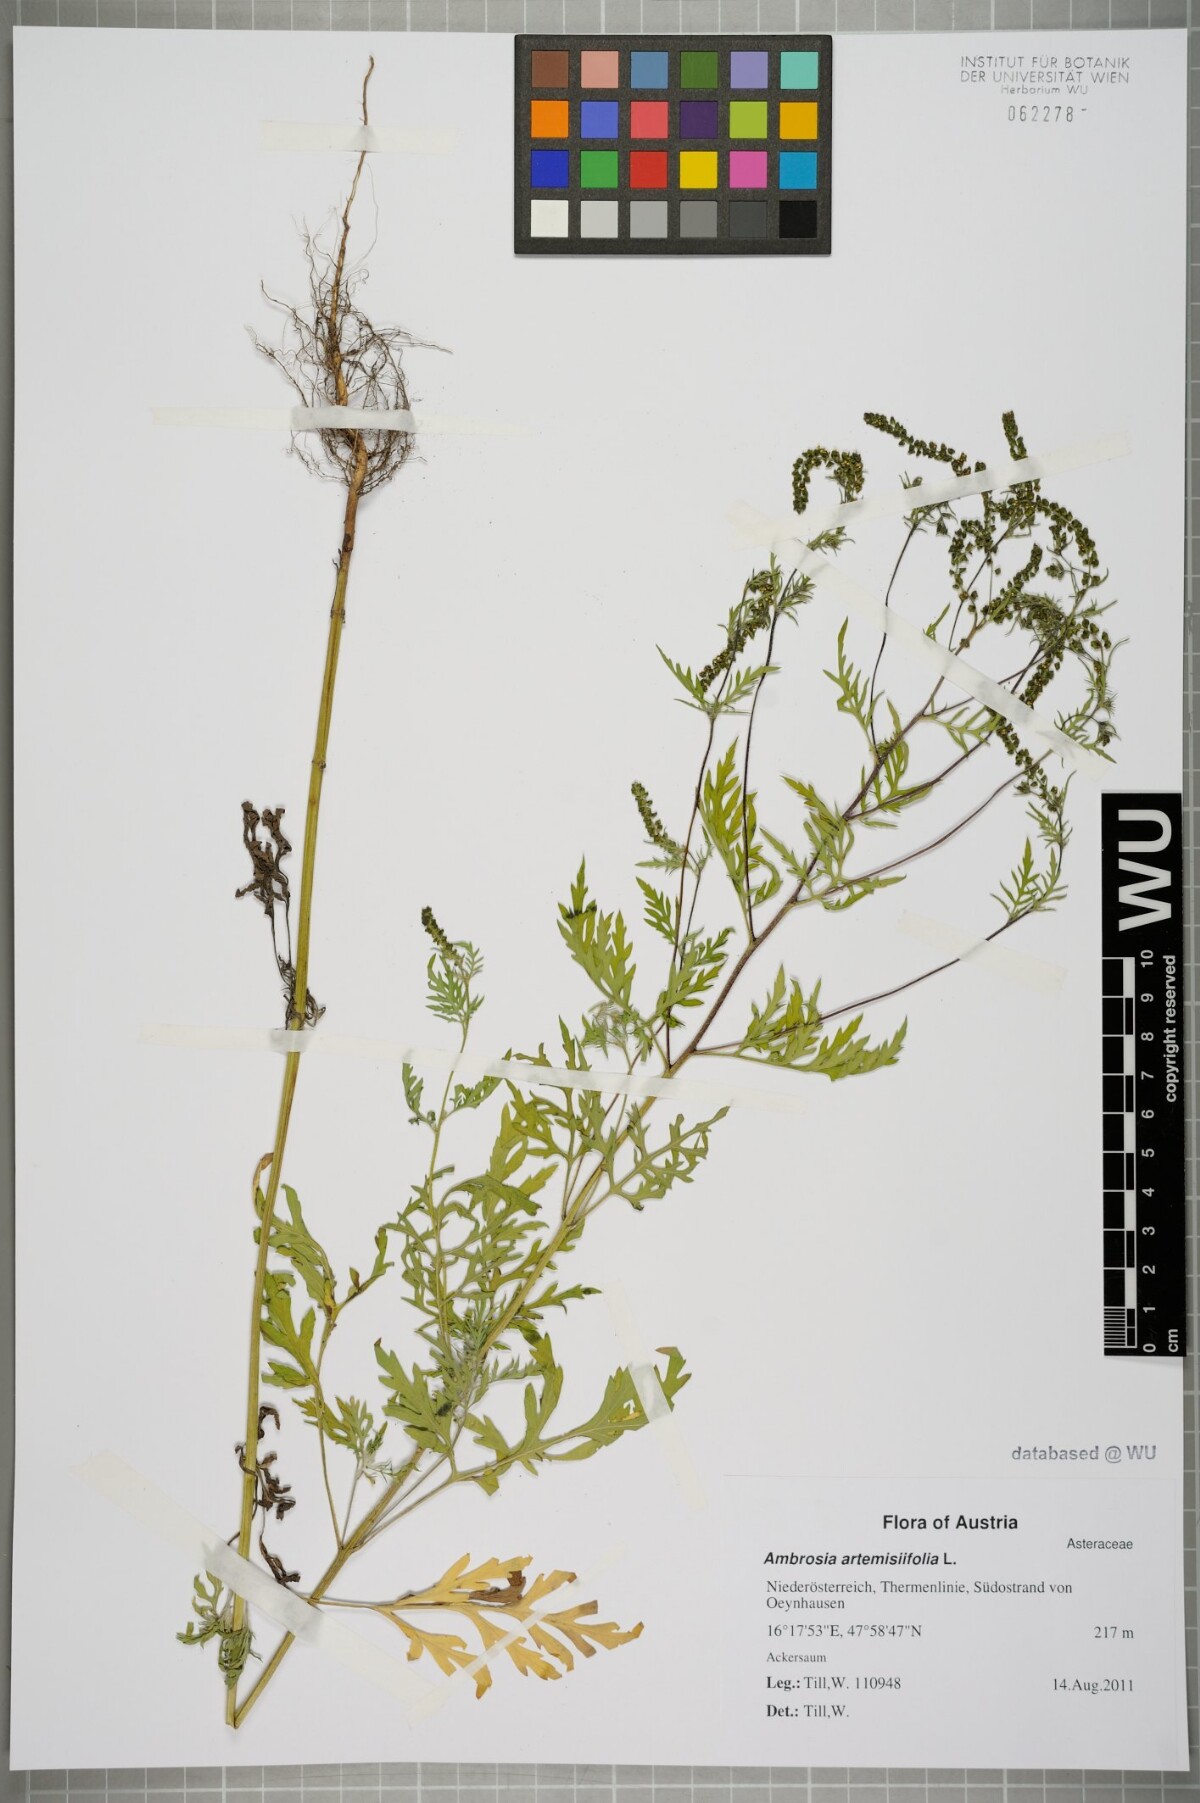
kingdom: Plantae
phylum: Tracheophyta
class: Magnoliopsida
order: Asterales
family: Asteraceae
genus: Ambrosia
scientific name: Ambrosia artemisiifolia
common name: Annual ragweed
